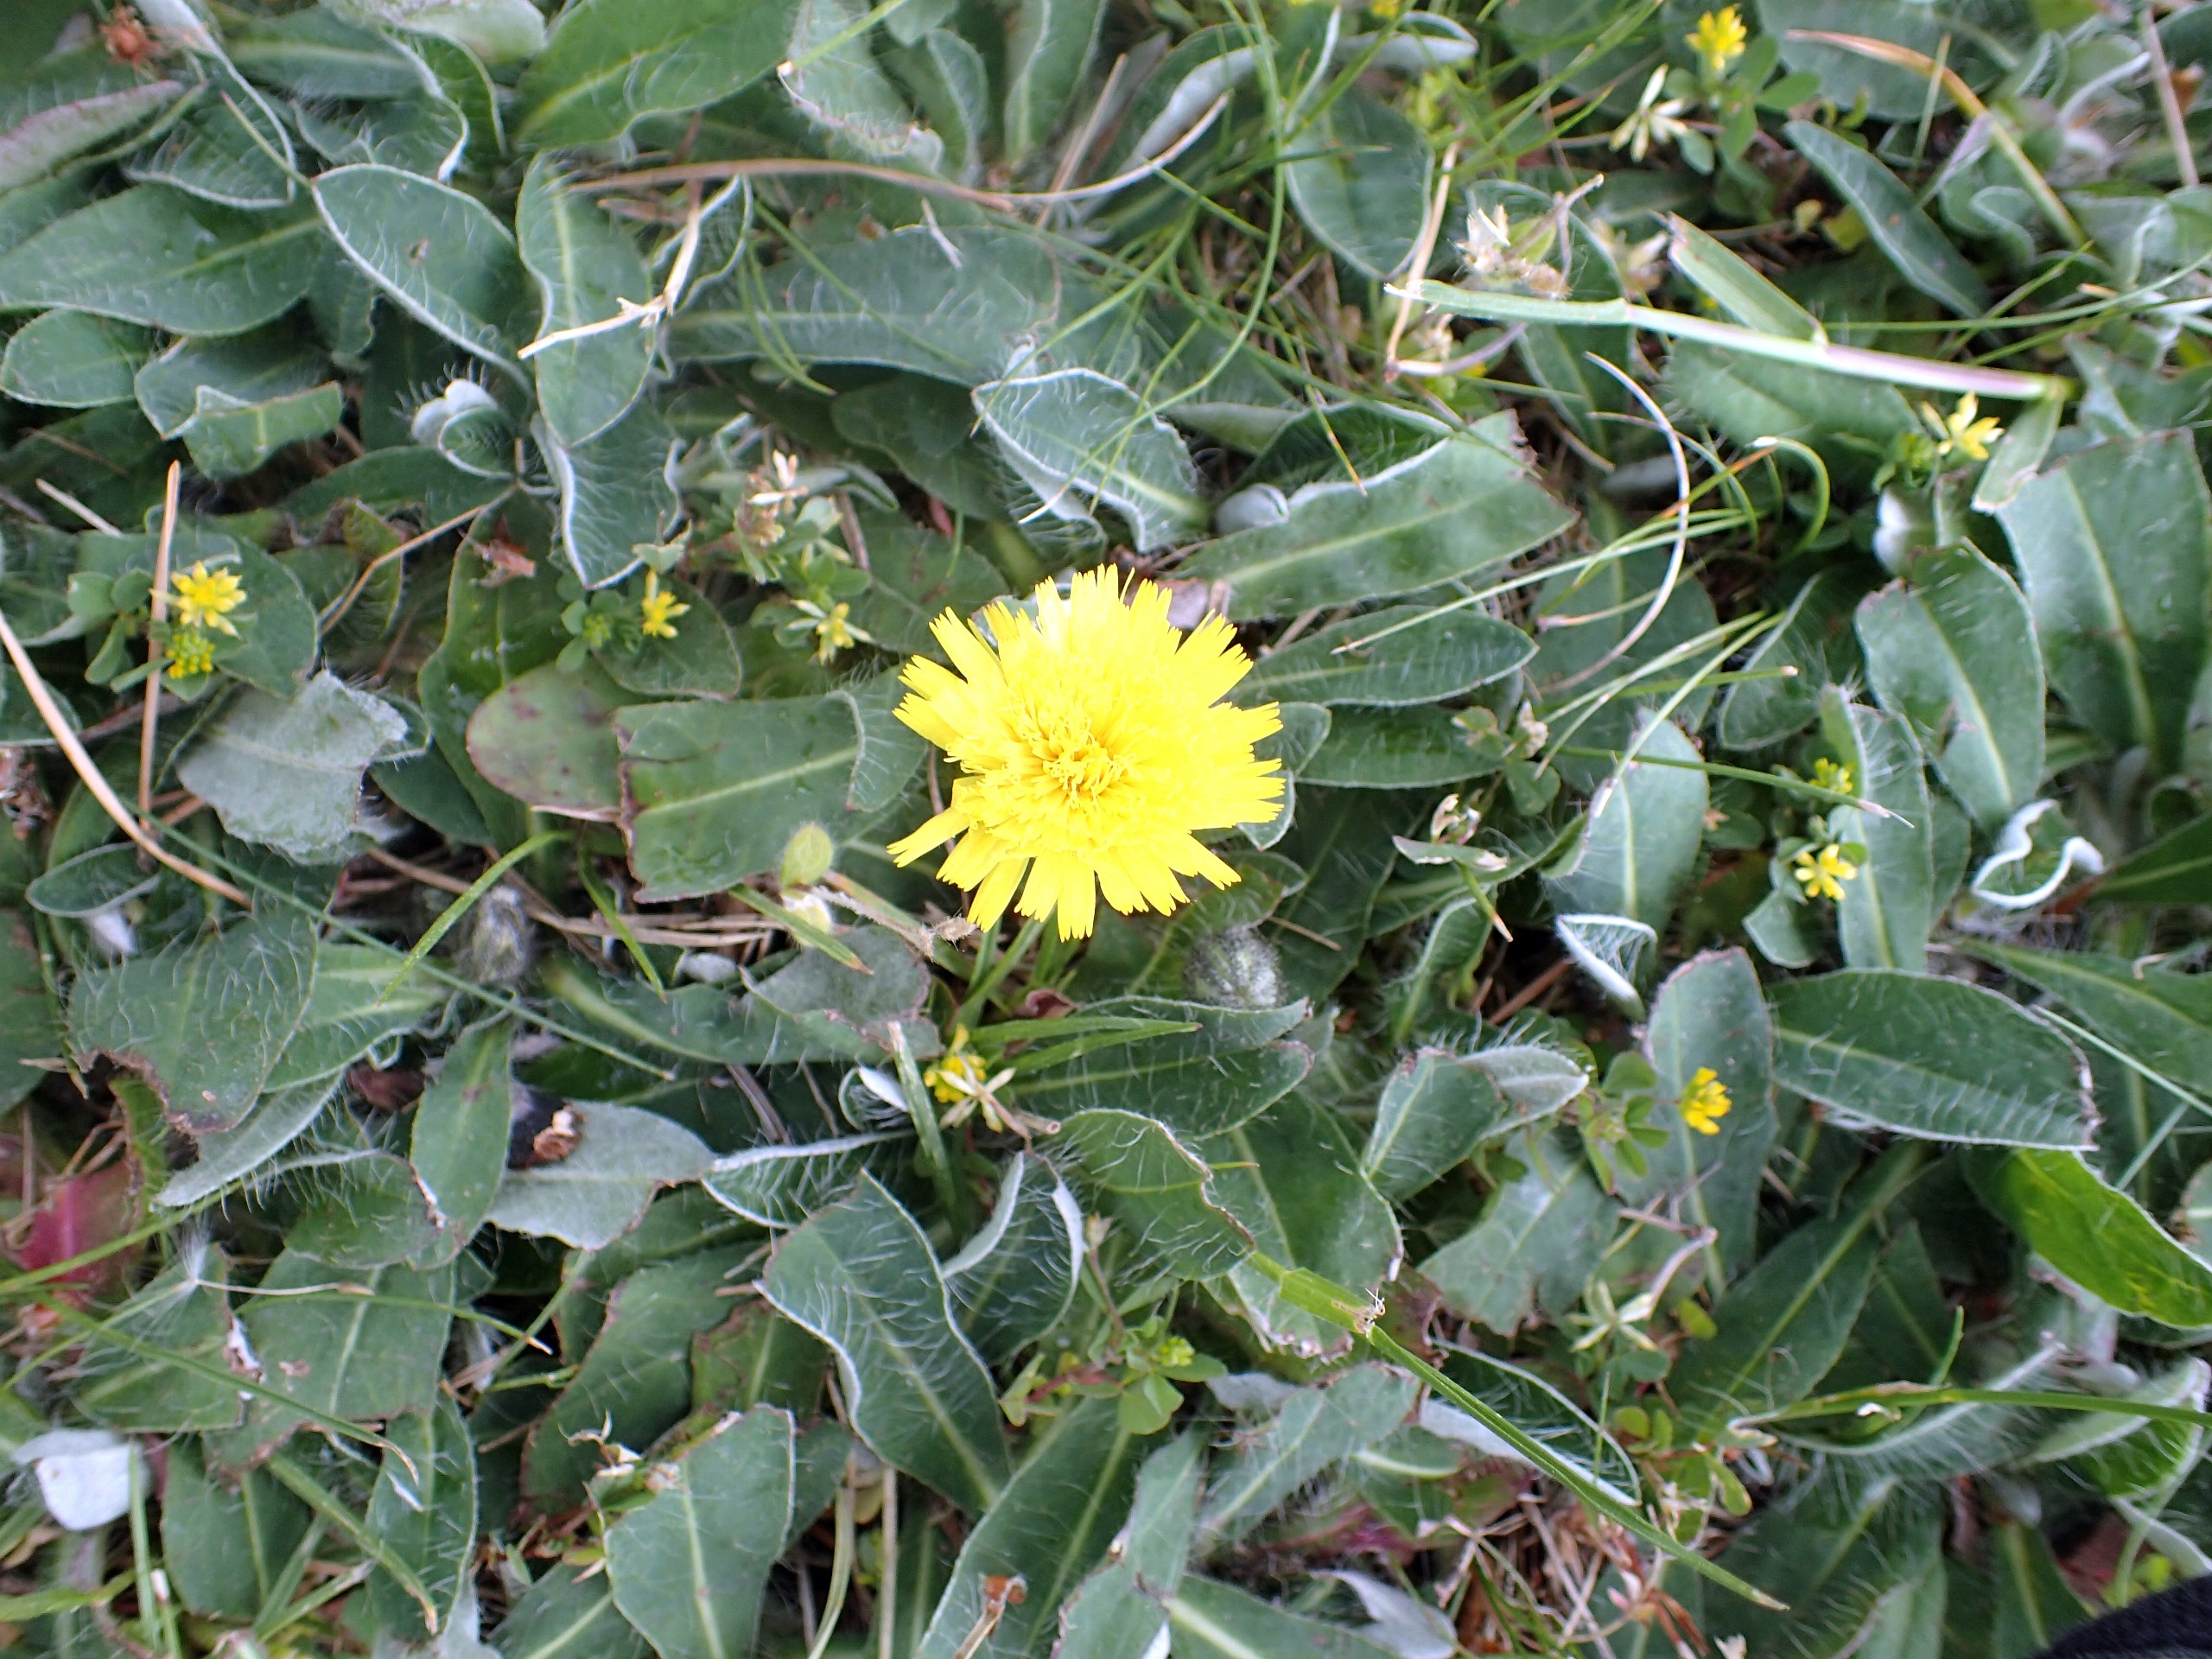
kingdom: Plantae
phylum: Tracheophyta
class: Magnoliopsida
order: Asterales
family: Asteraceae
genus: Pilosella
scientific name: Pilosella officinarum
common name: Håret høgeurt
